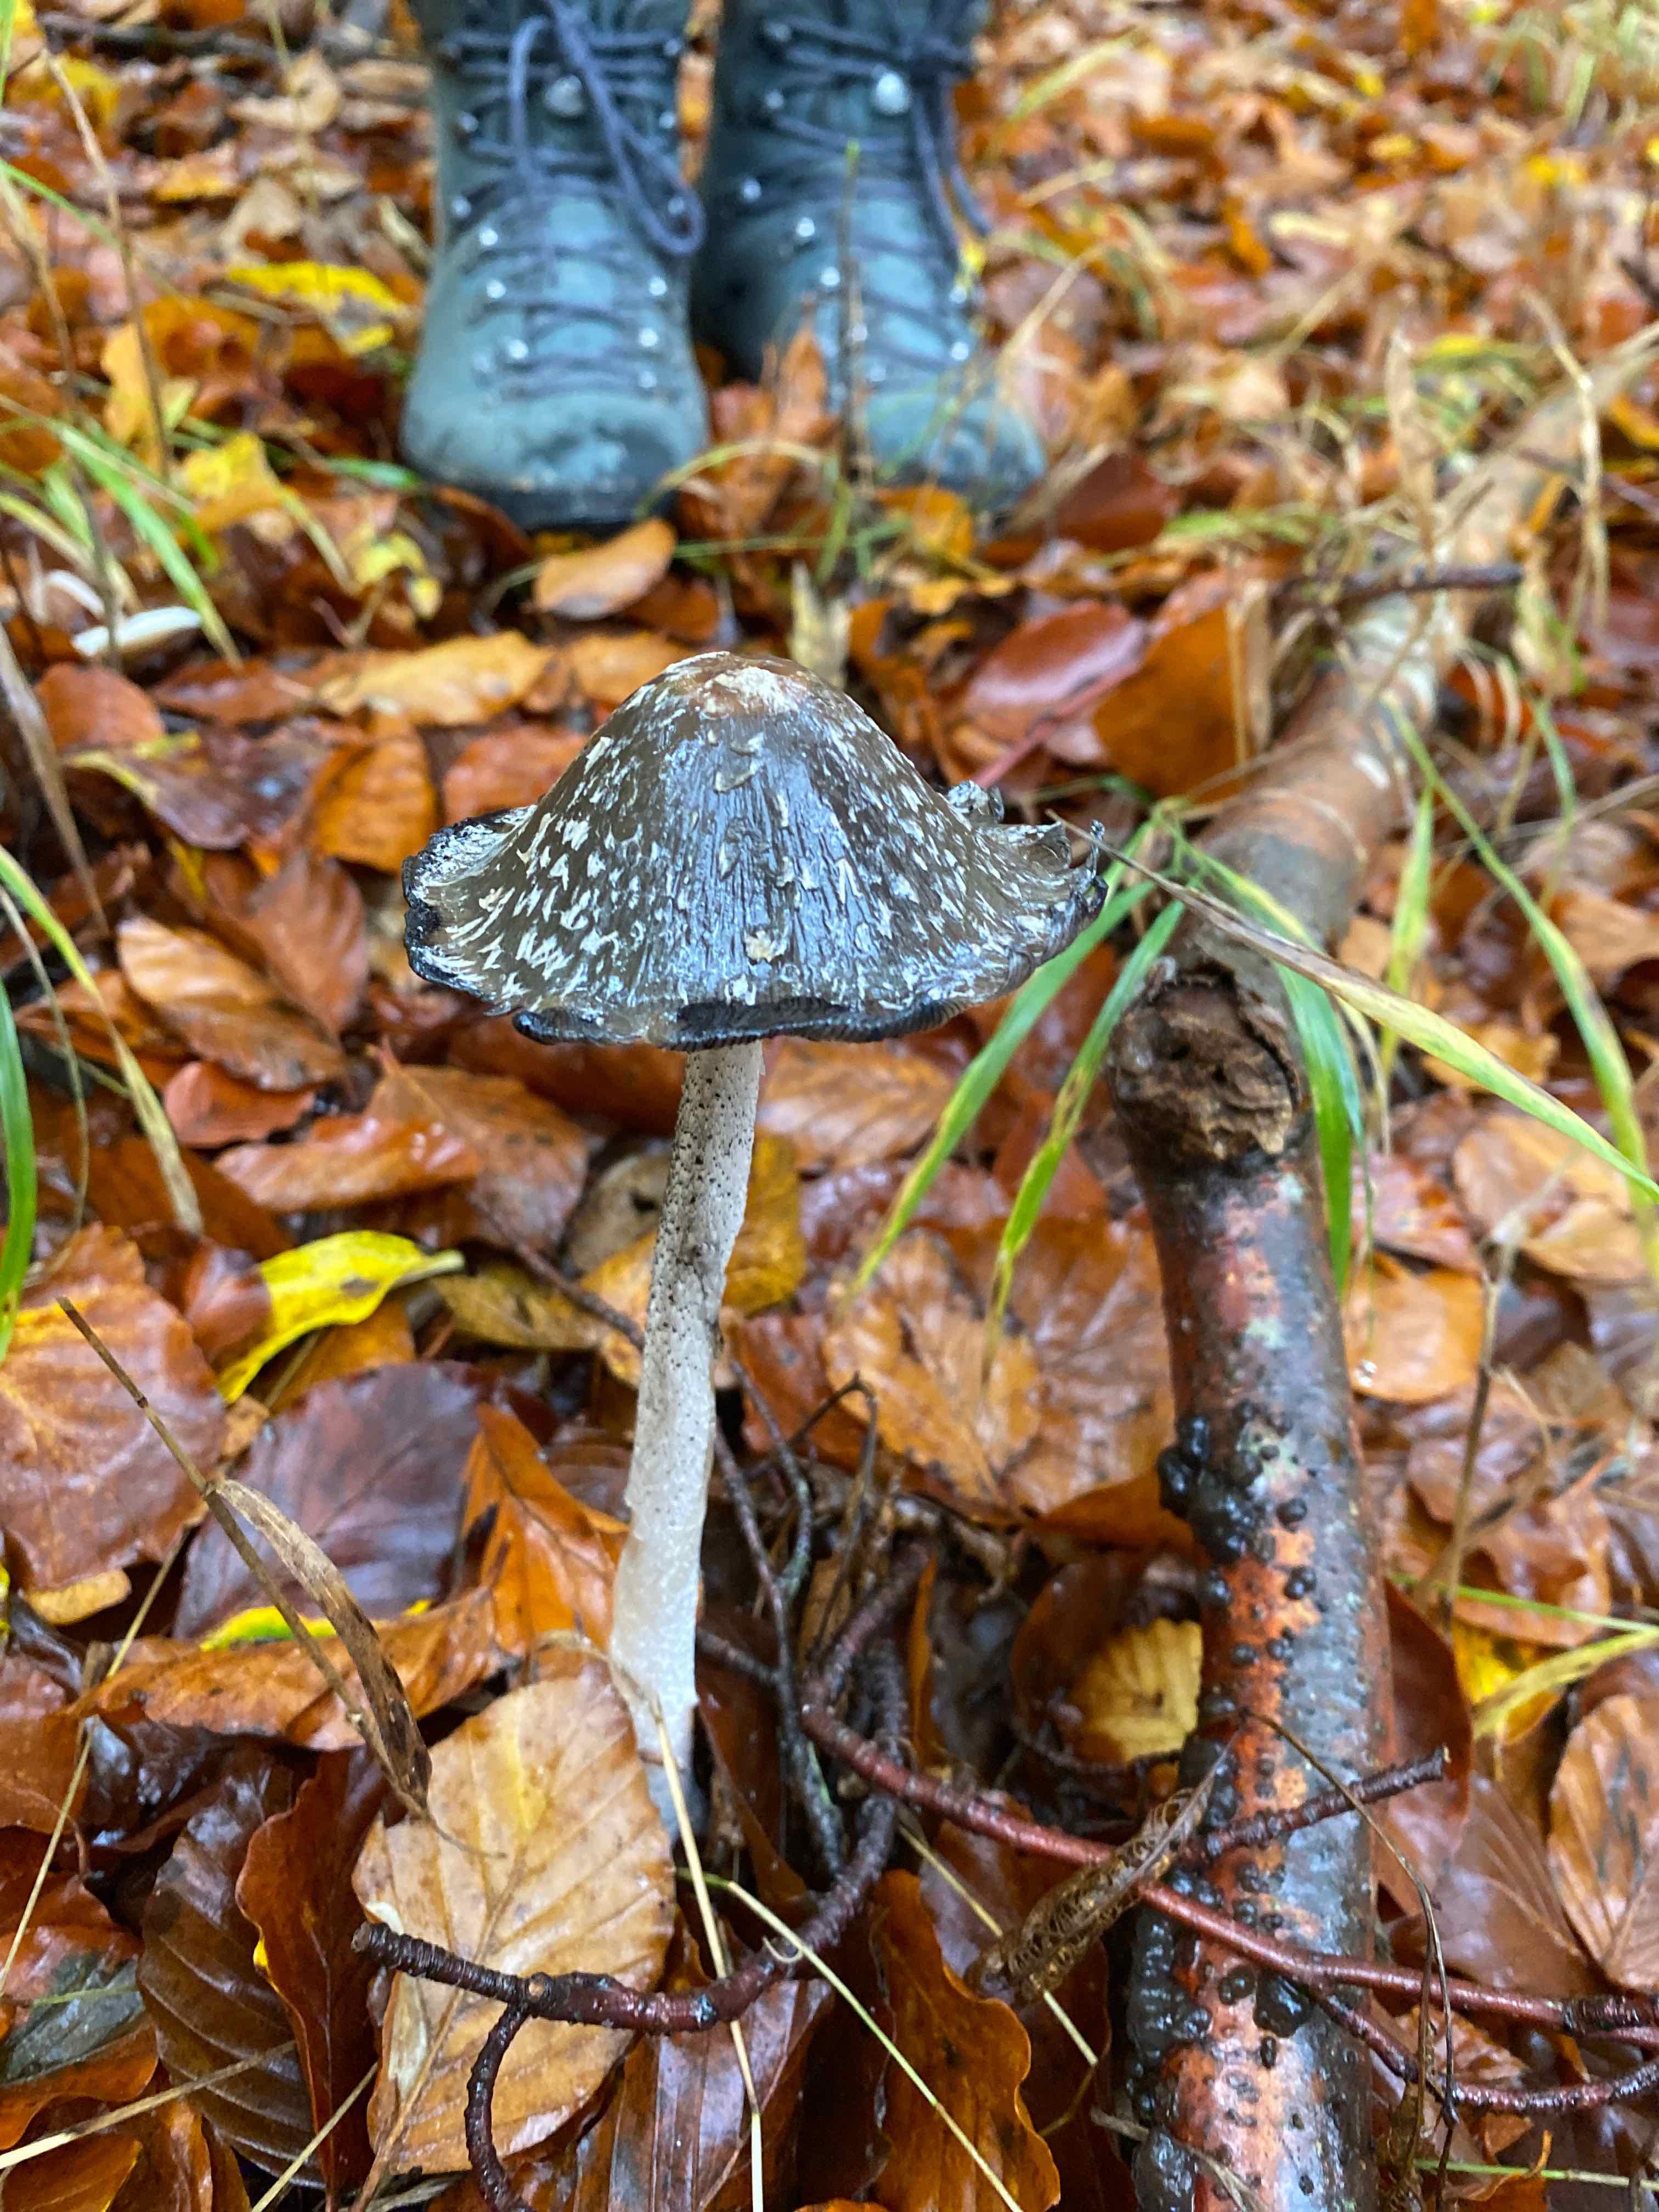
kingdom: Fungi
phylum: Basidiomycota
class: Agaricomycetes
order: Agaricales
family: Psathyrellaceae
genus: Coprinopsis
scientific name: Coprinopsis picacea
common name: skade-blækhat
